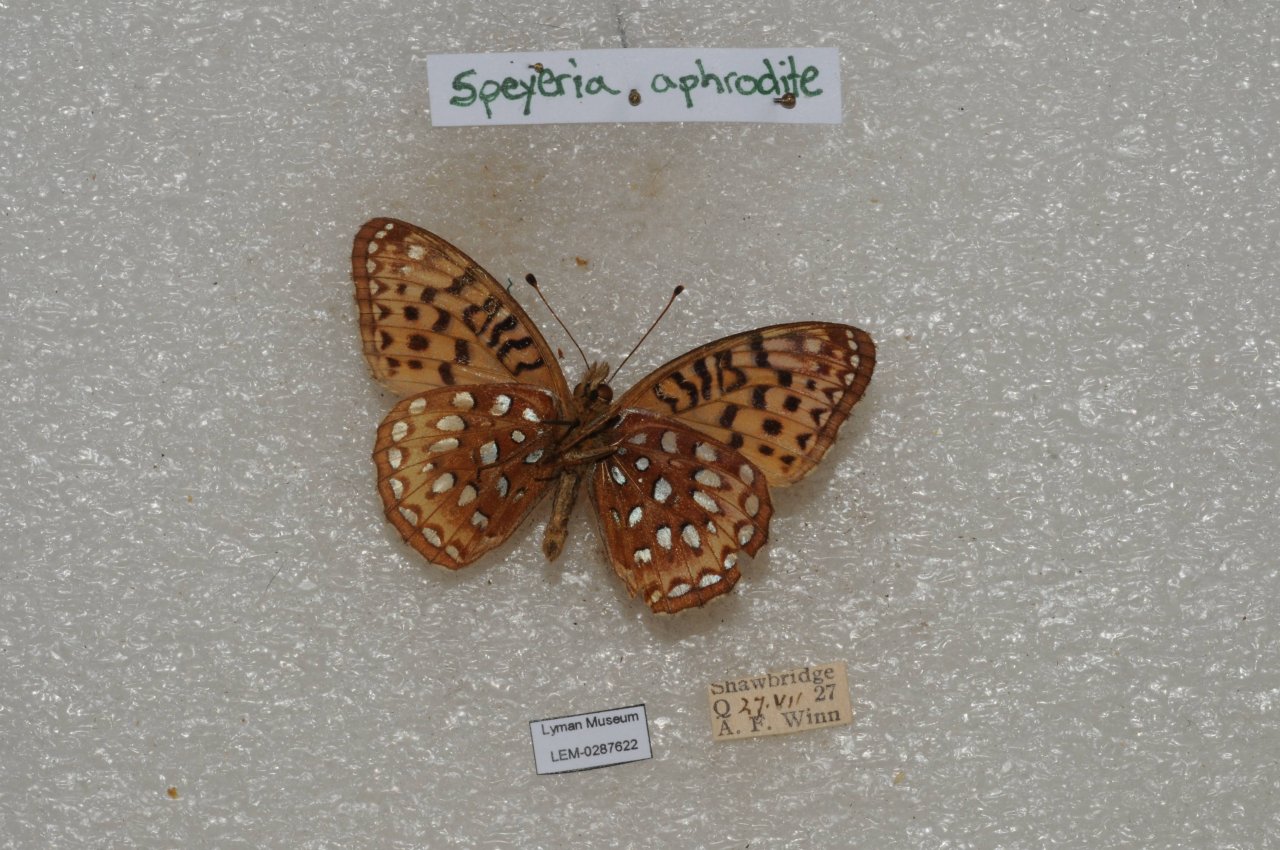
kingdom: Animalia
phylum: Arthropoda
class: Insecta
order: Lepidoptera
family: Nymphalidae
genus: Speyeria
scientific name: Speyeria aphrodite
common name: Aphrodite Fritillary
